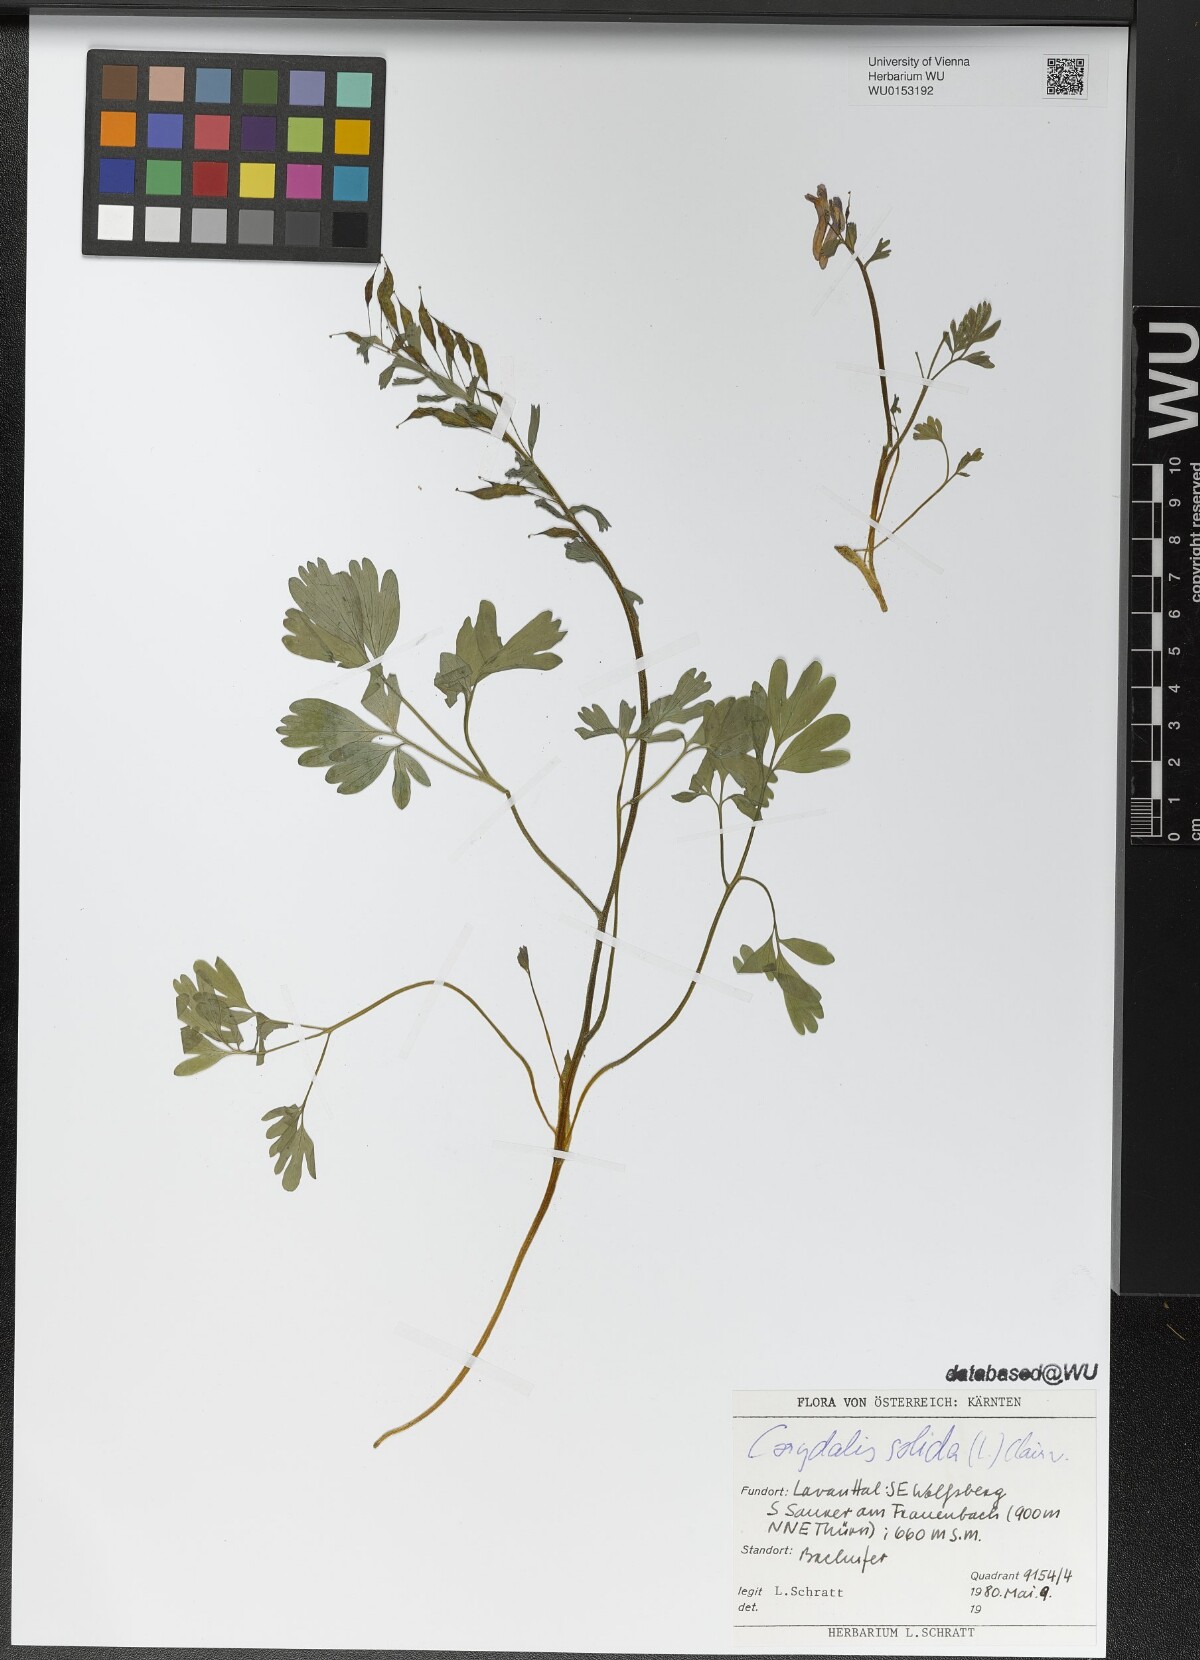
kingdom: Plantae
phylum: Tracheophyta
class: Magnoliopsida
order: Ranunculales
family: Papaveraceae
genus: Corydalis
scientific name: Corydalis solida
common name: Bird-in-a-bush
